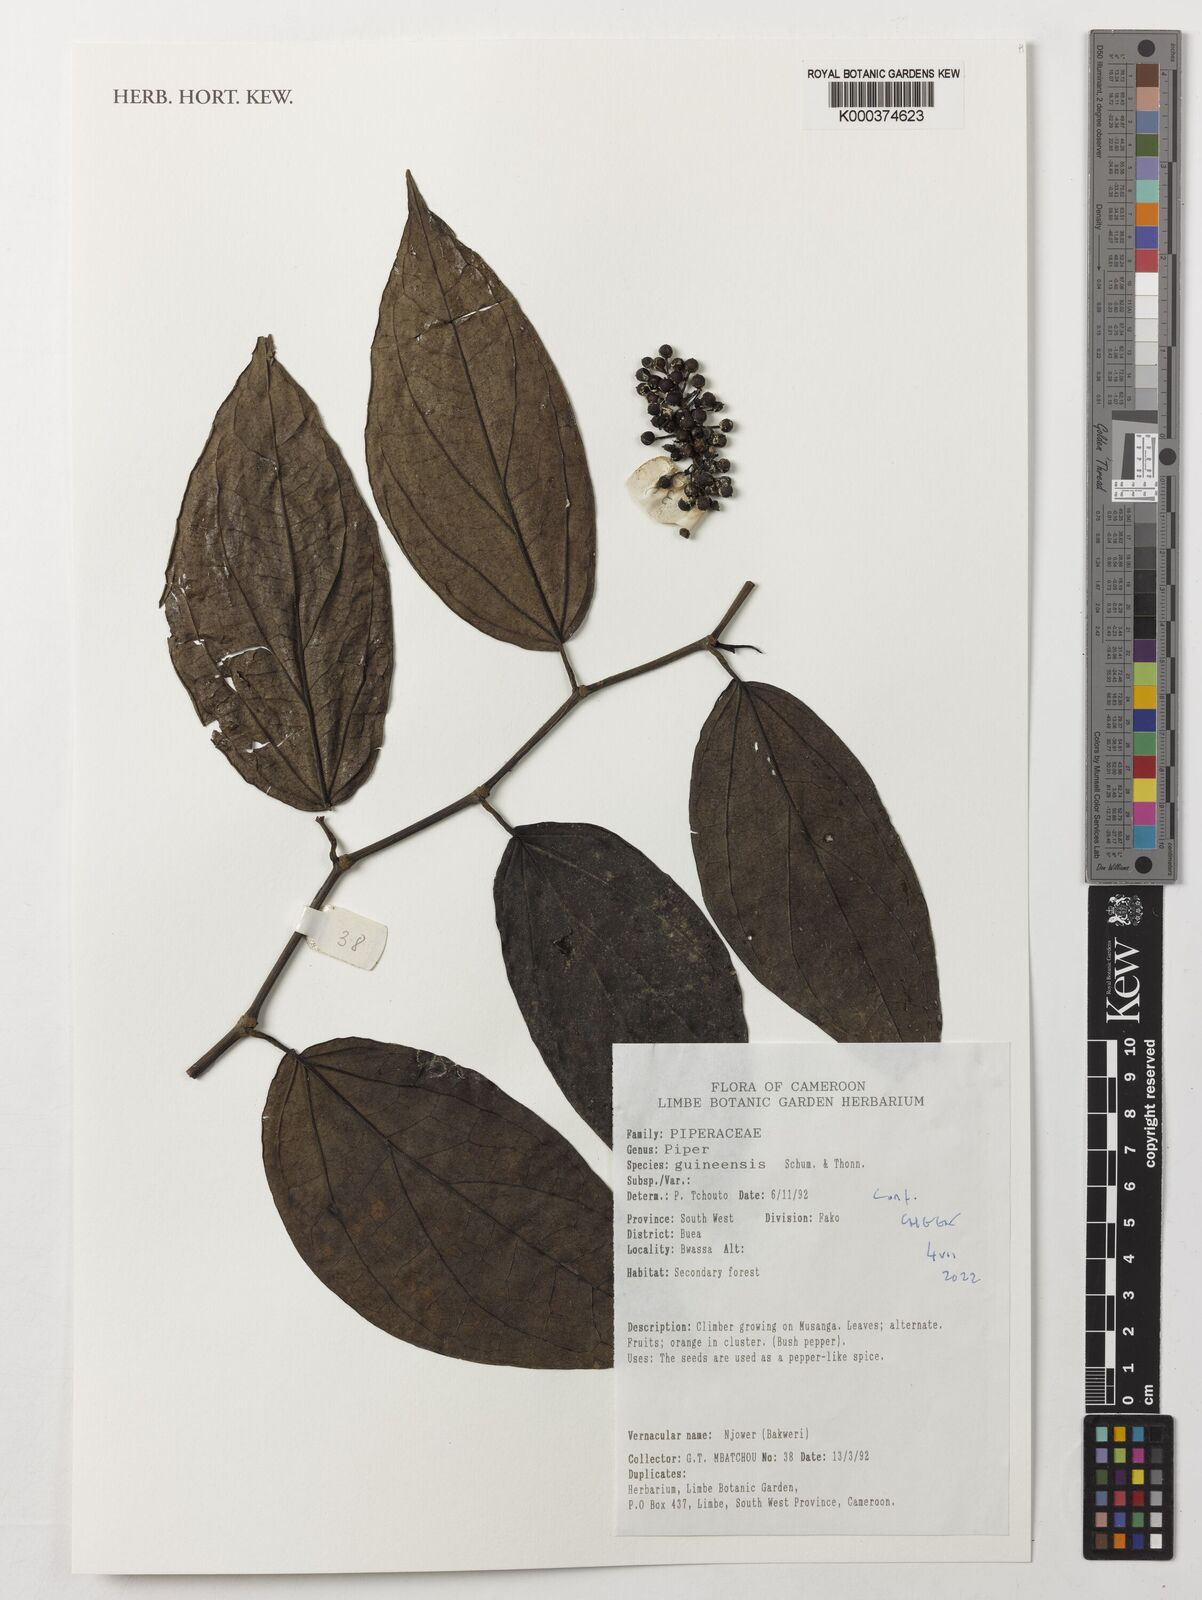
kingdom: Plantae
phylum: Tracheophyta
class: Magnoliopsida
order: Piperales
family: Piperaceae
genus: Piper
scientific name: Piper guineense
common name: Benin pepper
